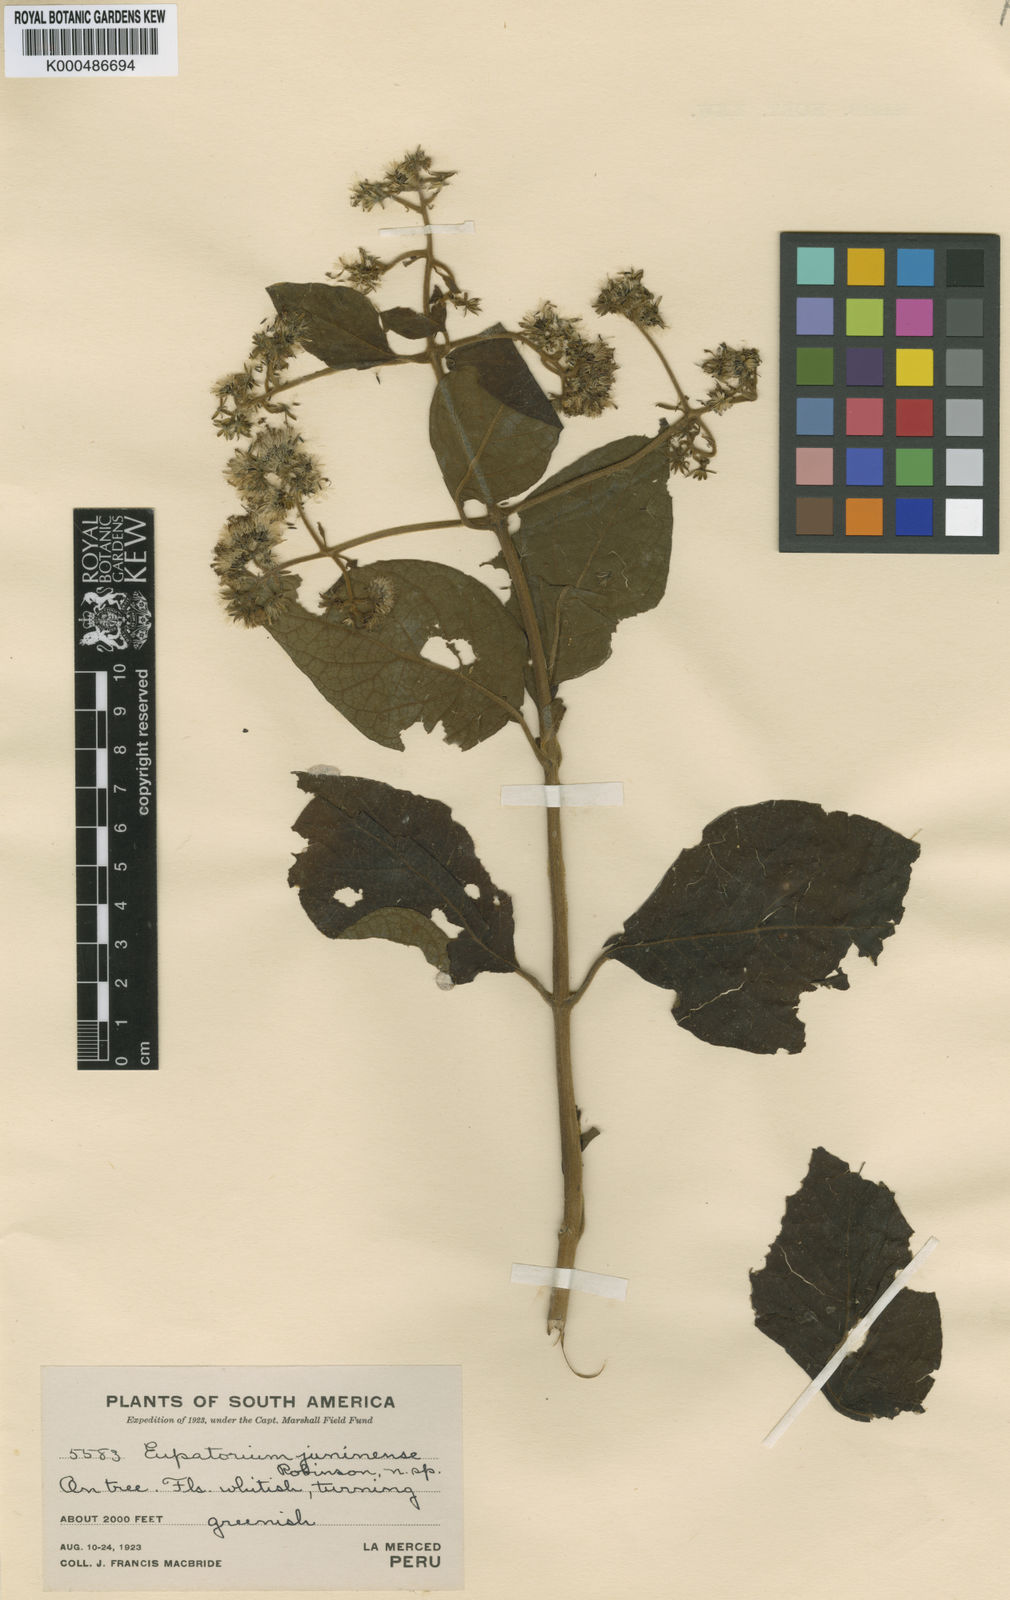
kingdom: Plantae
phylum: Tracheophyta
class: Magnoliopsida
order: Asterales
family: Asteraceae
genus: Koanophyllon
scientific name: Koanophyllon juninense
